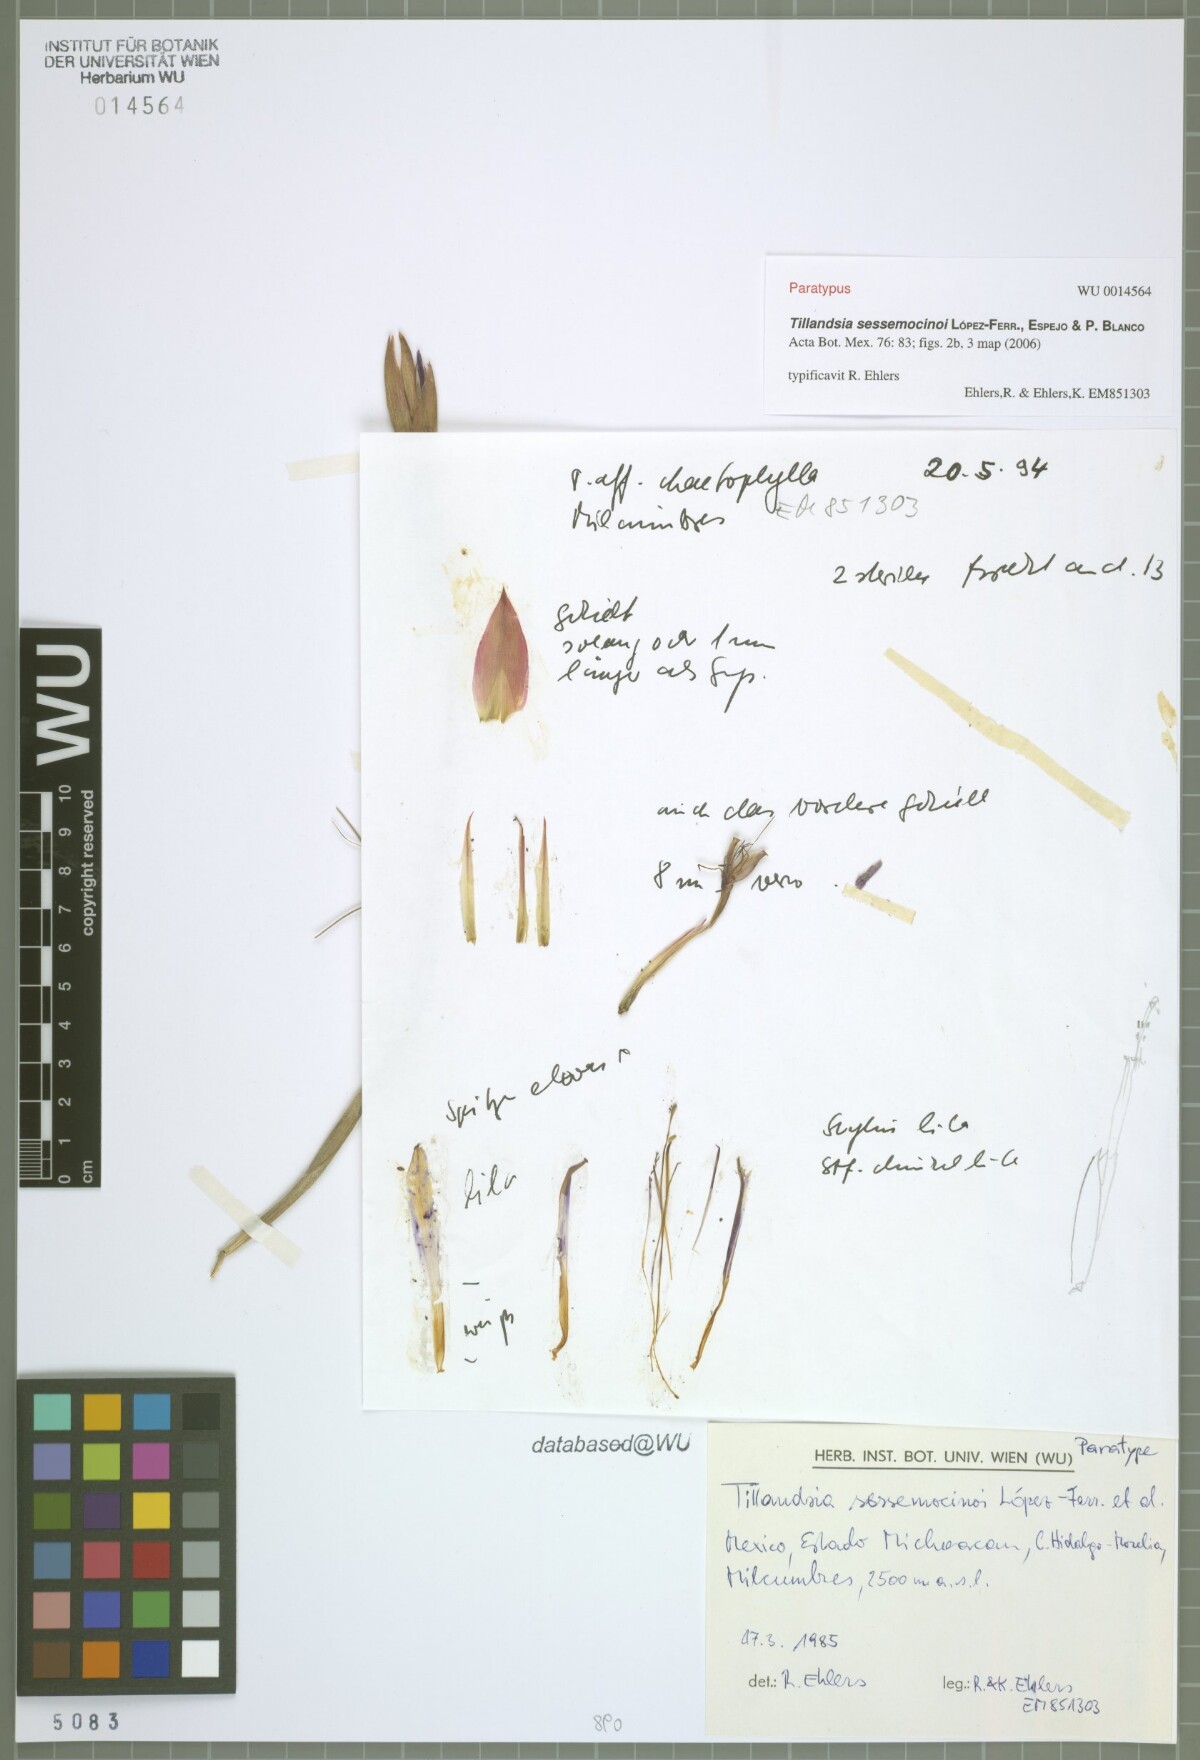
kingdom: Plantae
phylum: Tracheophyta
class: Liliopsida
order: Poales
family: Bromeliaceae
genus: Tillandsia
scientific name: Tillandsia sessemocinoi
